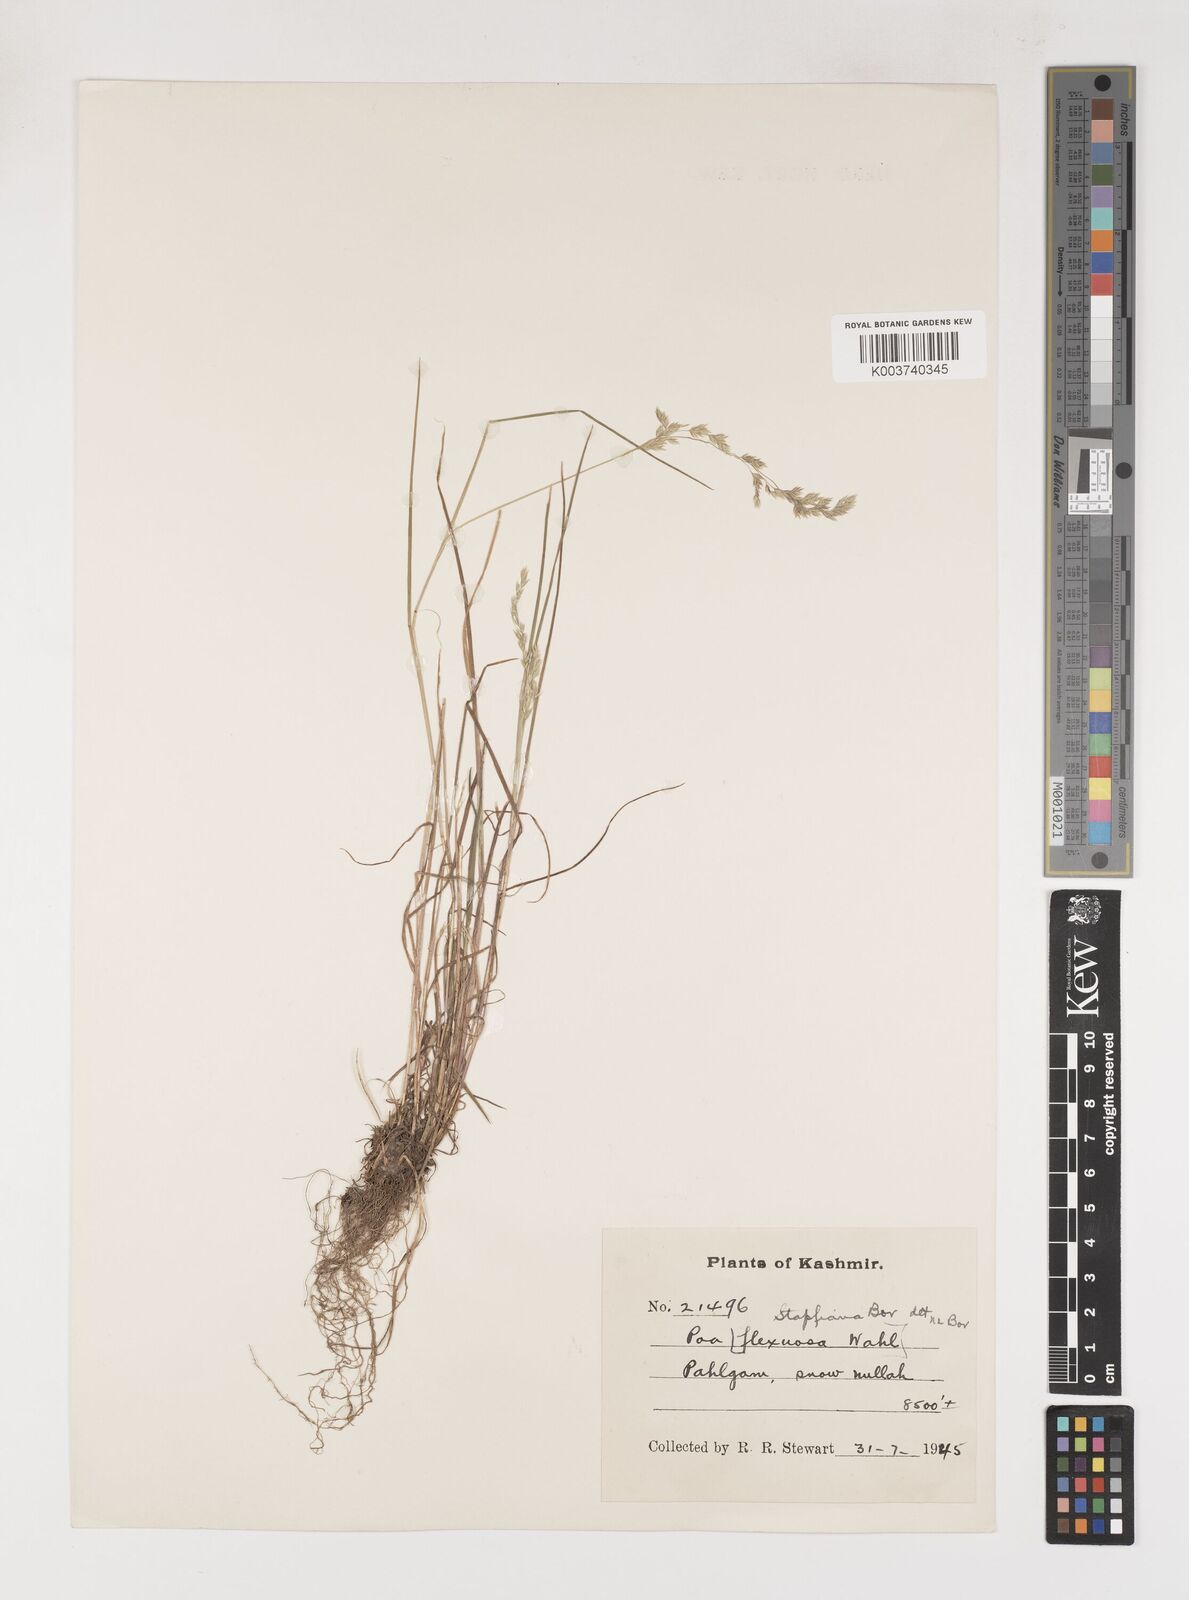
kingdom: Plantae
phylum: Tracheophyta
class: Liliopsida
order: Poales
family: Poaceae
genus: Poa
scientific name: Poa stapfiana
